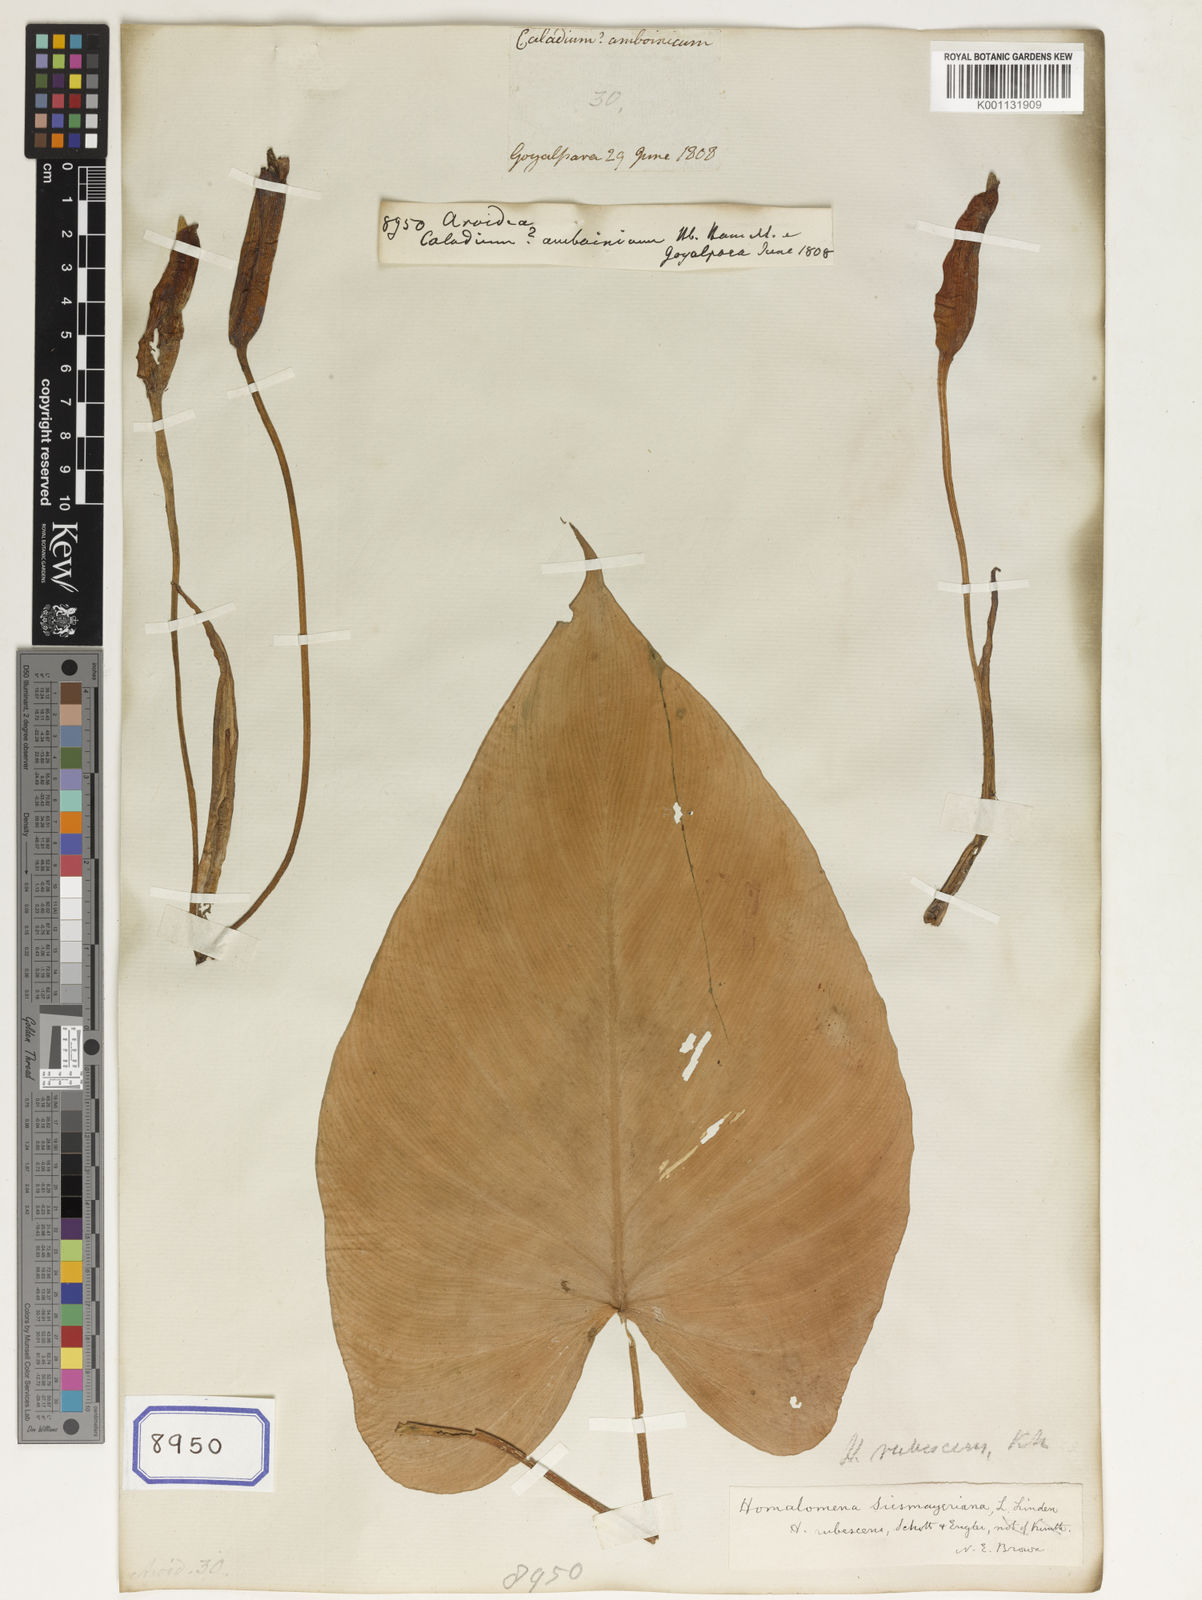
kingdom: Plantae
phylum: Tracheophyta
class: Liliopsida
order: Alismatales
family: Araceae
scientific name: Araceae
